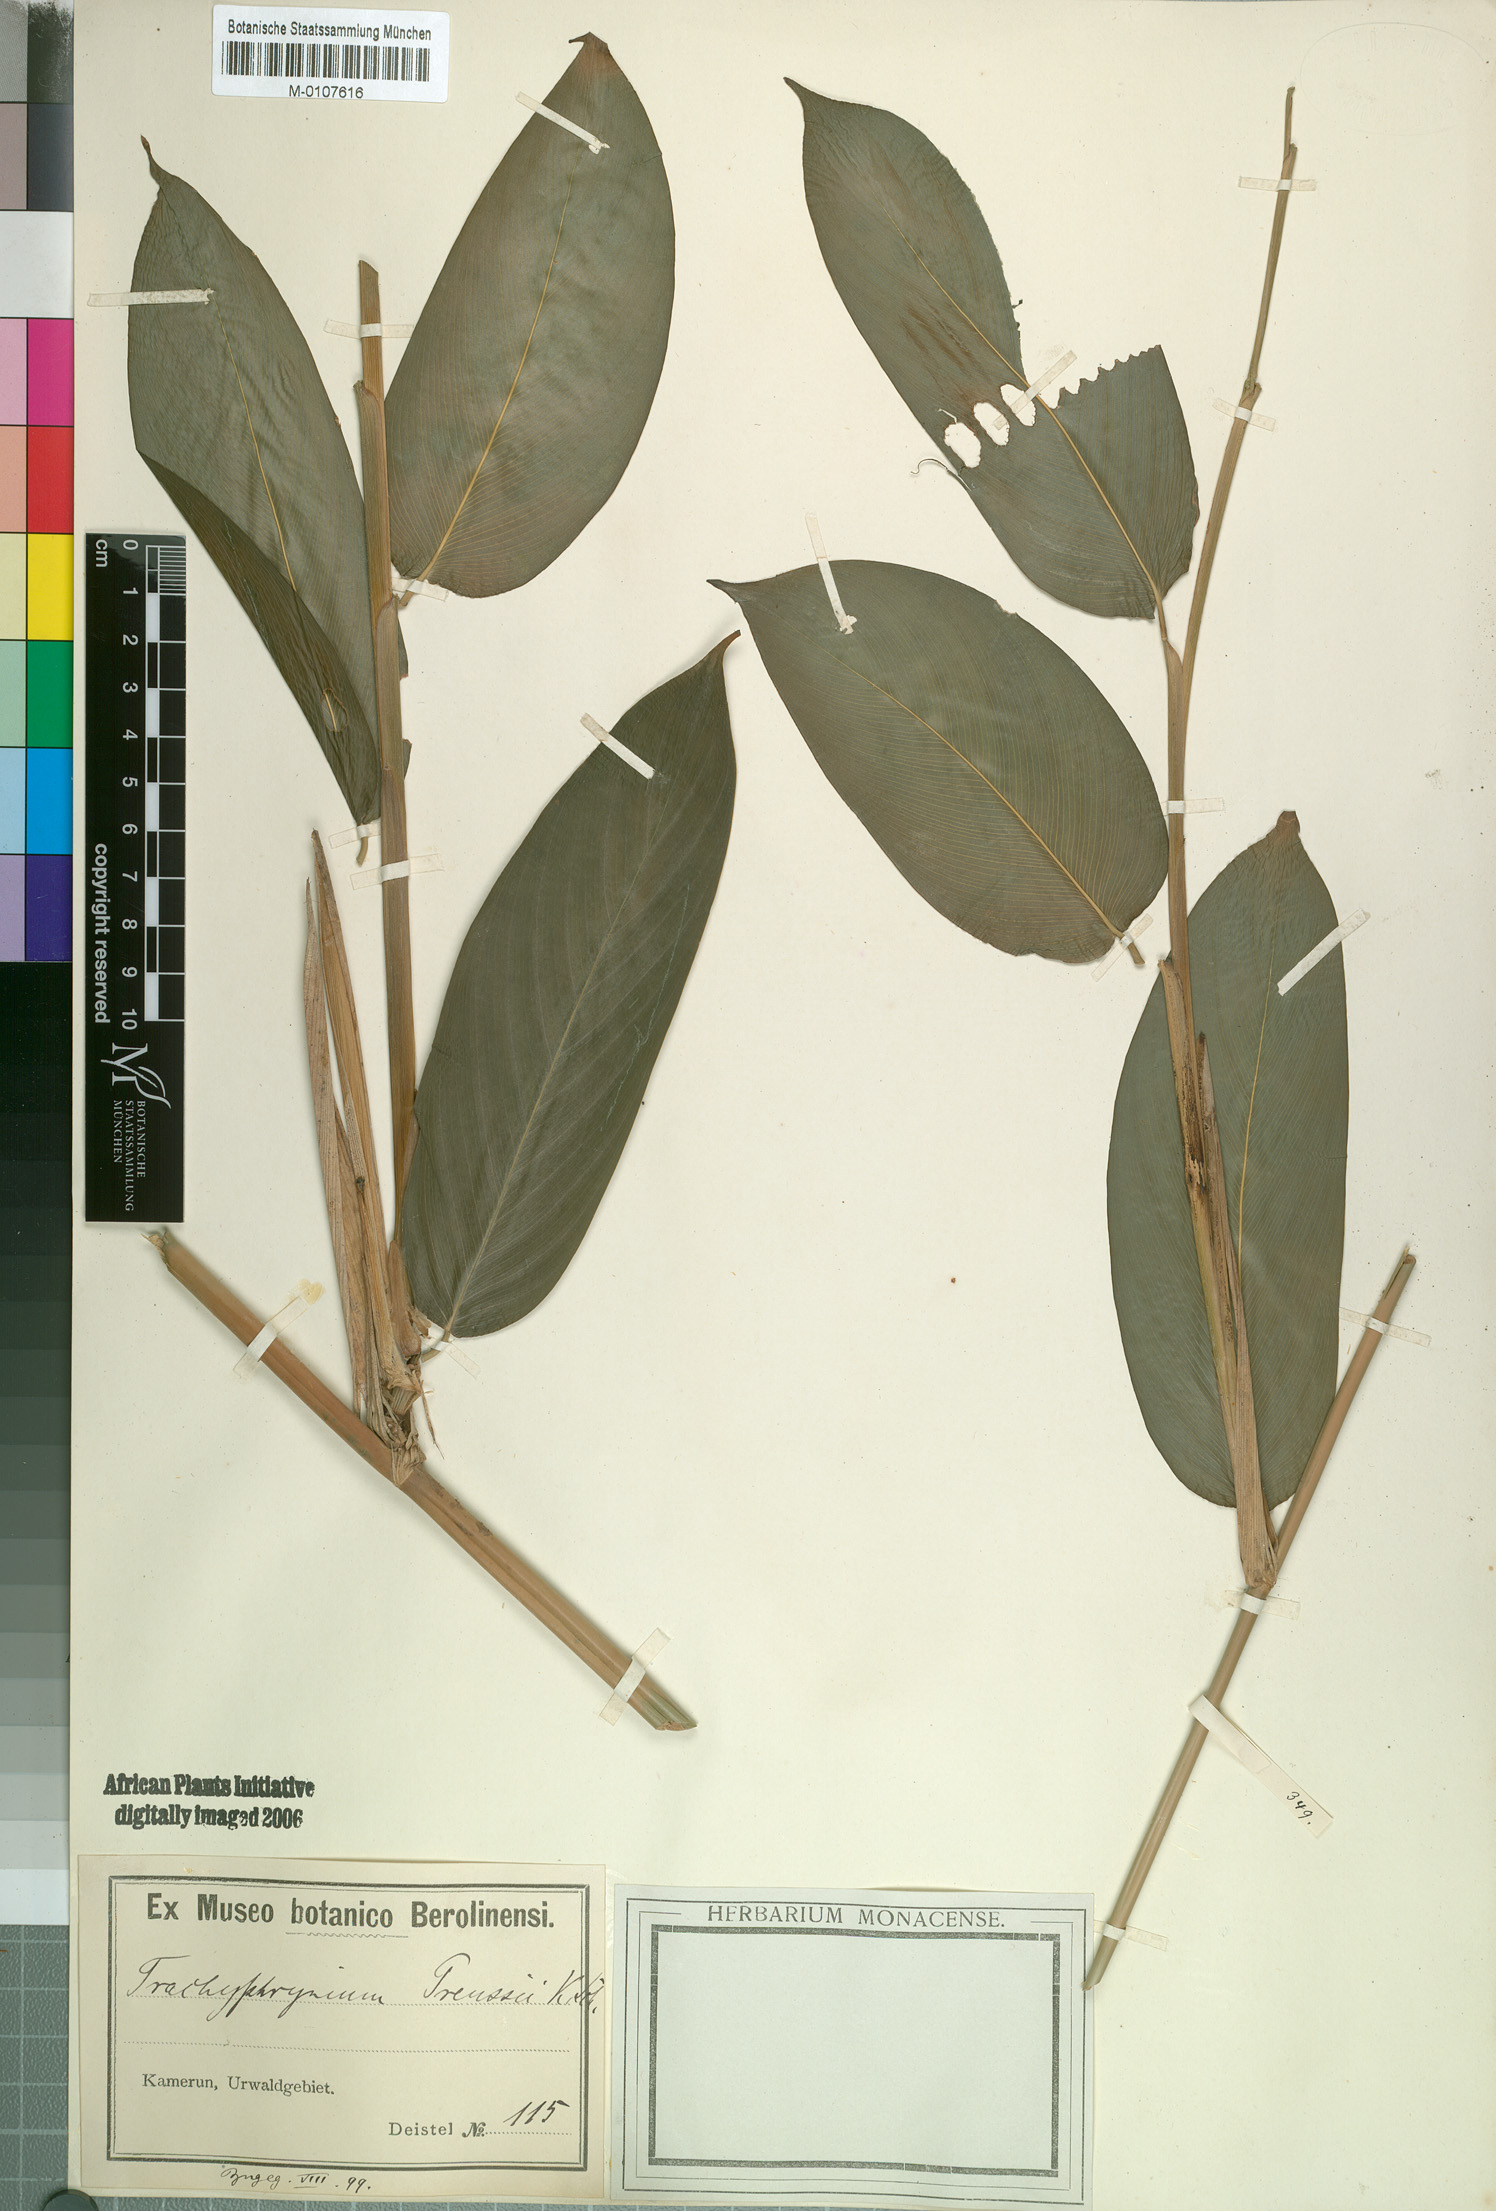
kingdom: Plantae
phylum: Tracheophyta
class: Liliopsida
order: Zingiberales
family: Marantaceae
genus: Hypselodelphys
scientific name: Hypselodelphys violacea
